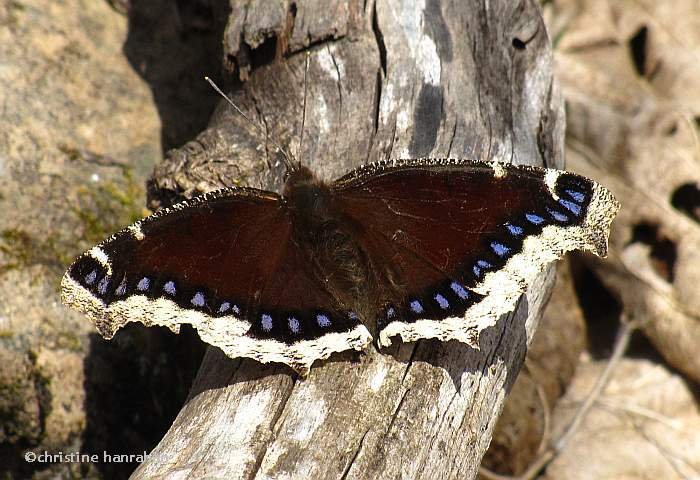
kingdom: Animalia
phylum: Arthropoda
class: Insecta
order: Lepidoptera
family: Nymphalidae
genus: Nymphalis
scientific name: Nymphalis antiopa
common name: Mourning Cloak
